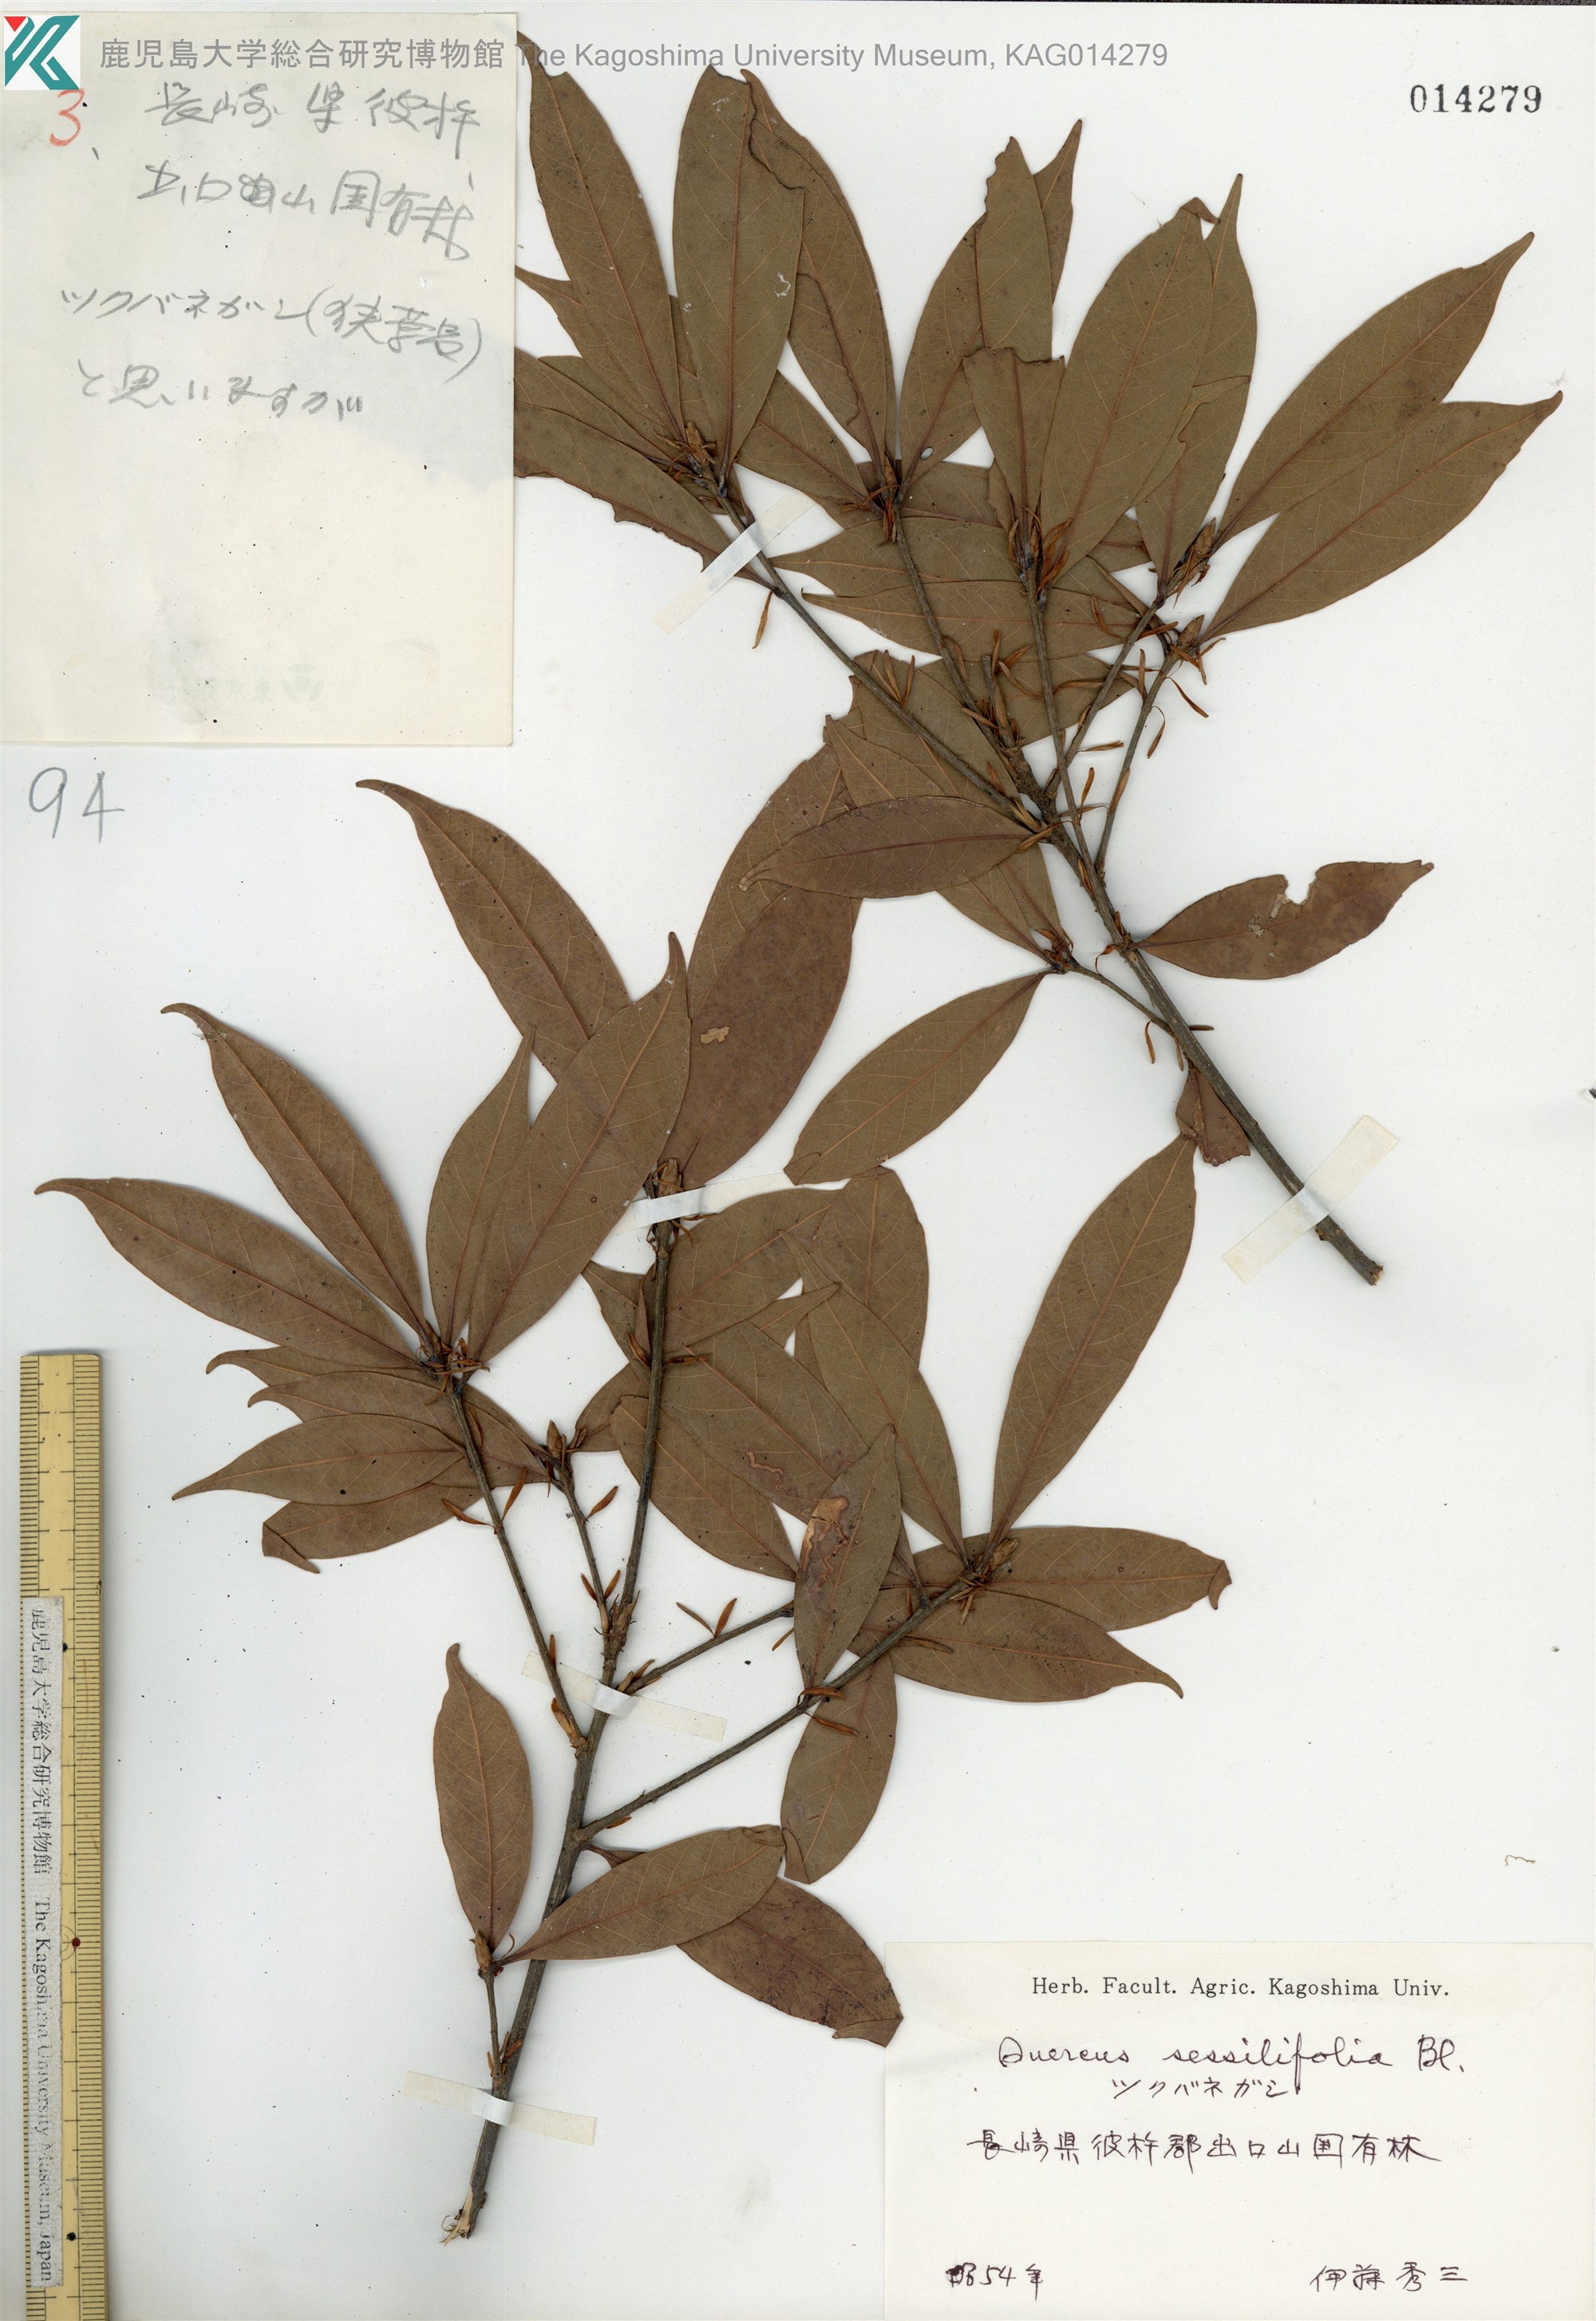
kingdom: Plantae
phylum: Tracheophyta
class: Magnoliopsida
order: Fagales
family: Fagaceae
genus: Quercus
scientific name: Quercus sessilifolia
